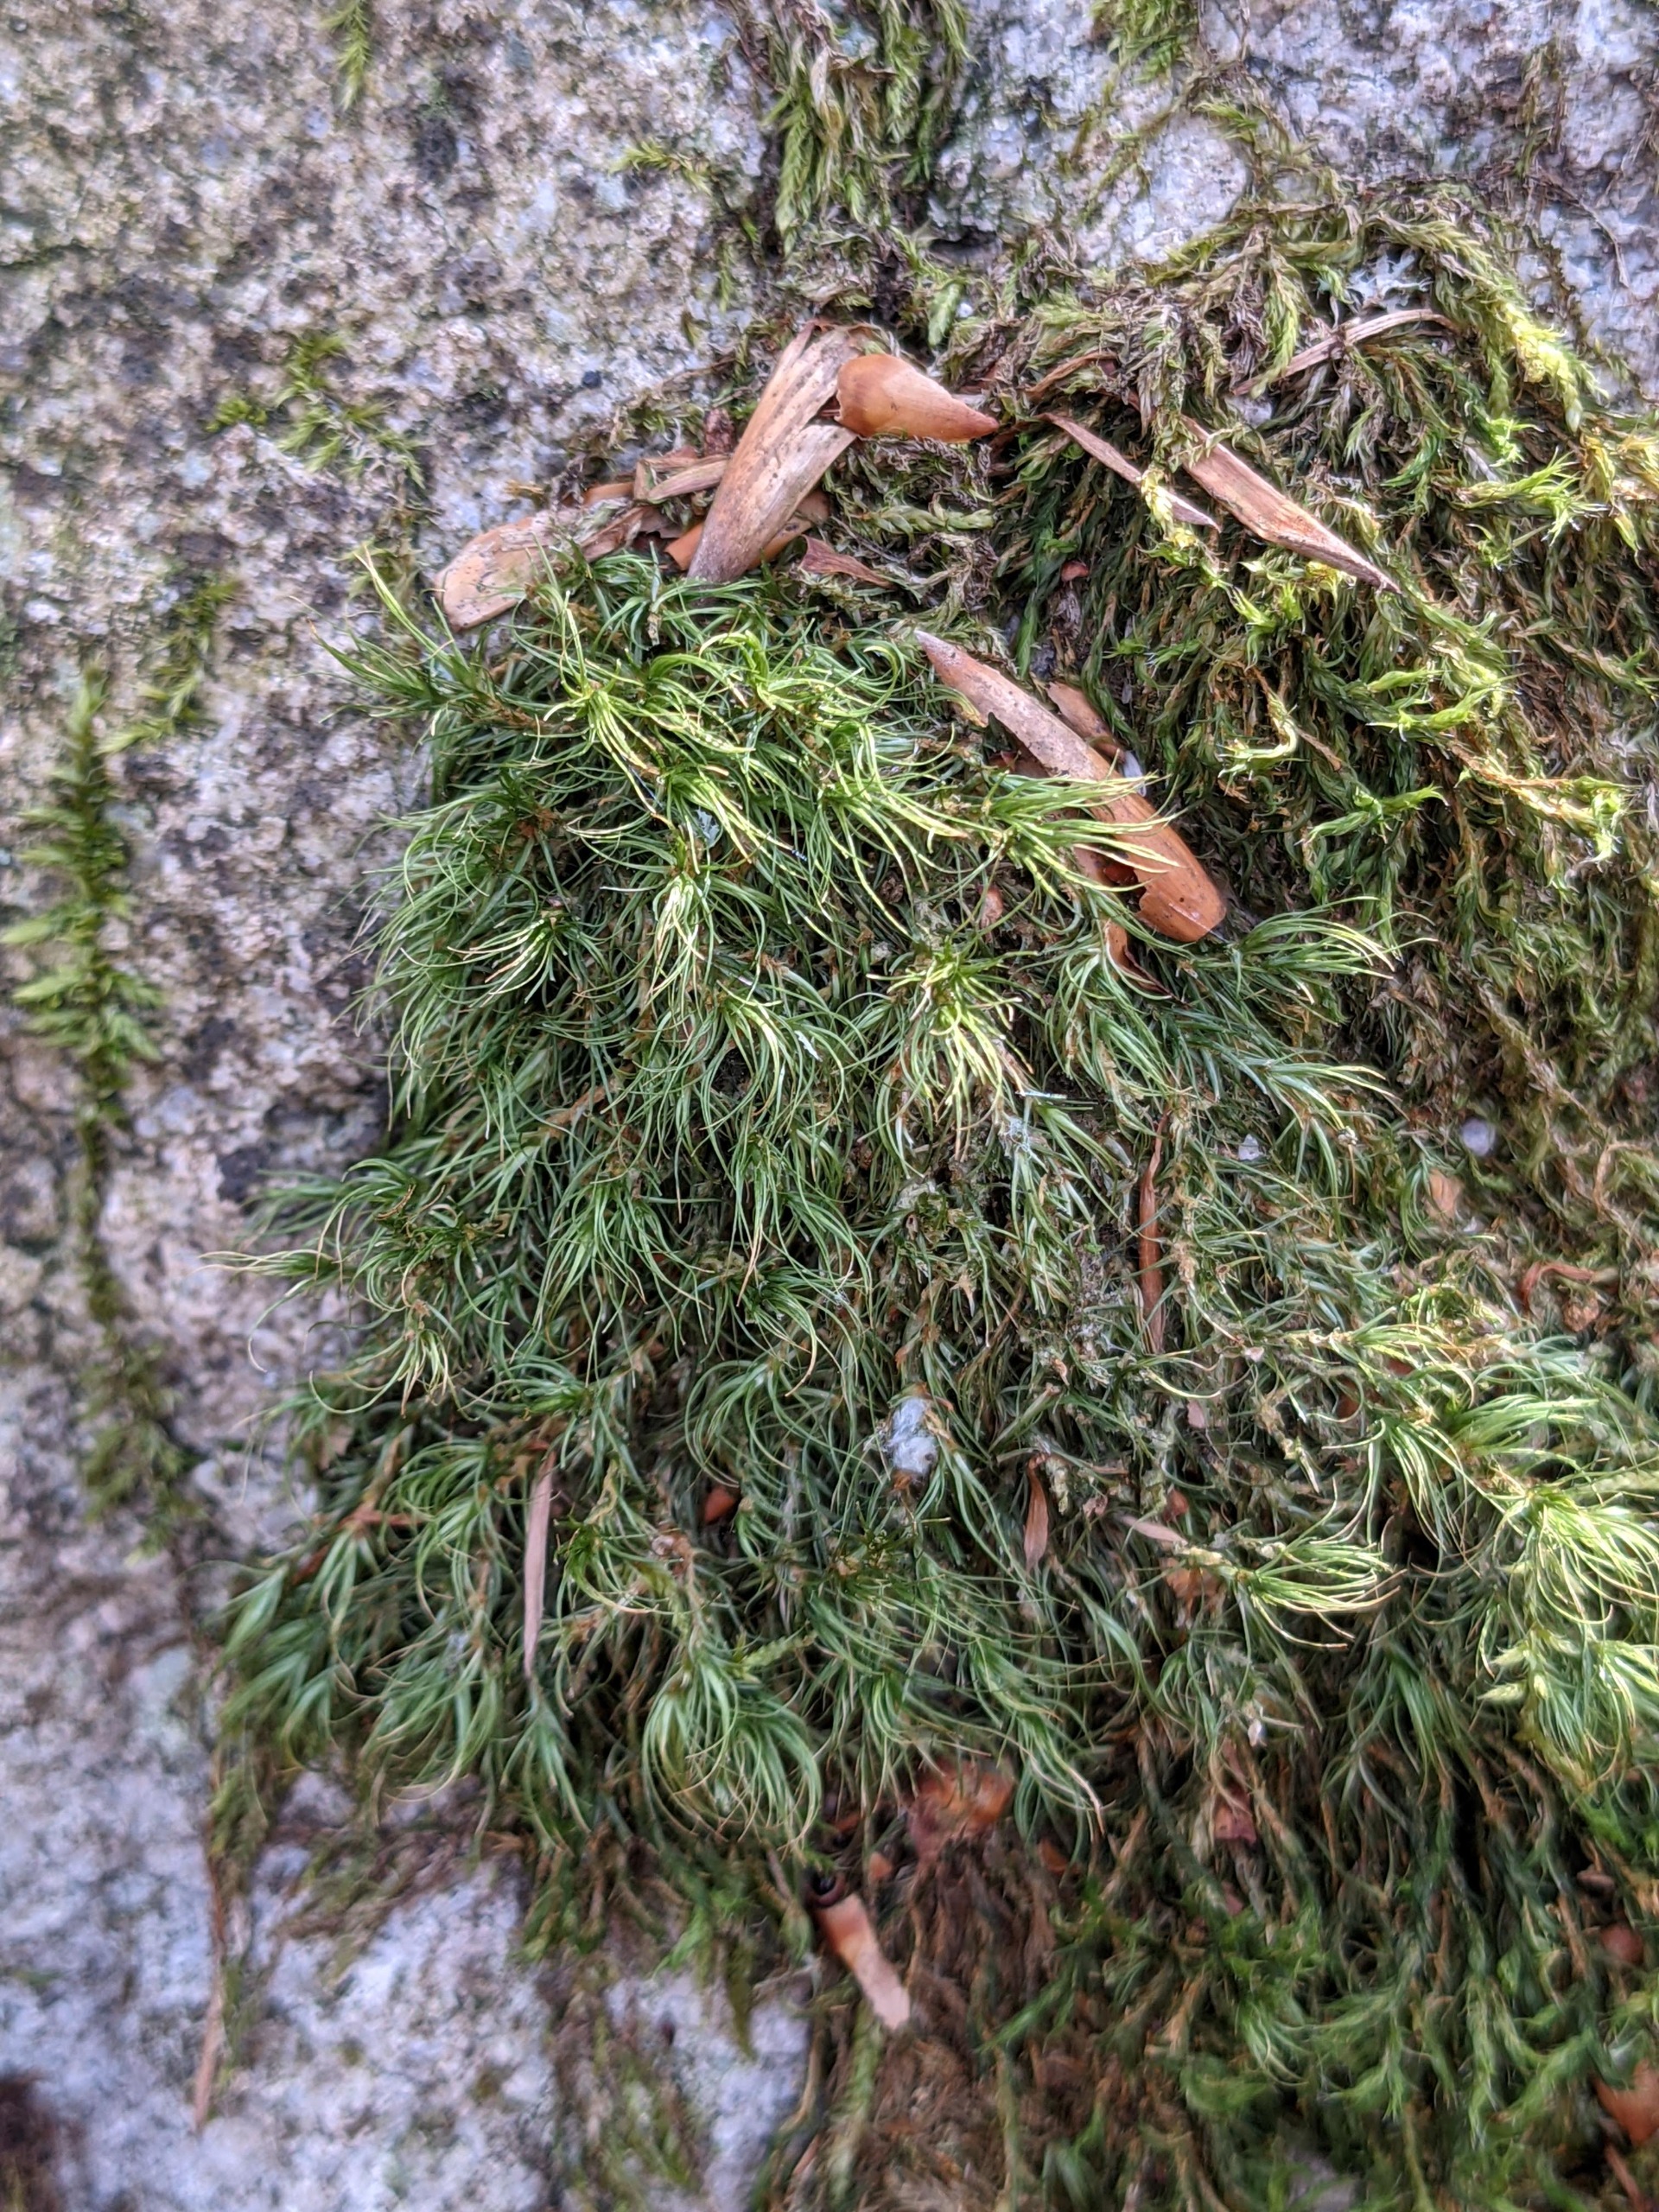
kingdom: Plantae
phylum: Bryophyta
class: Bryopsida
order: Dicranales
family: Dicranaceae
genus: Paraleucobryum
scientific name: Paraleucobryum longifolium
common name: Skov-ribbemos
